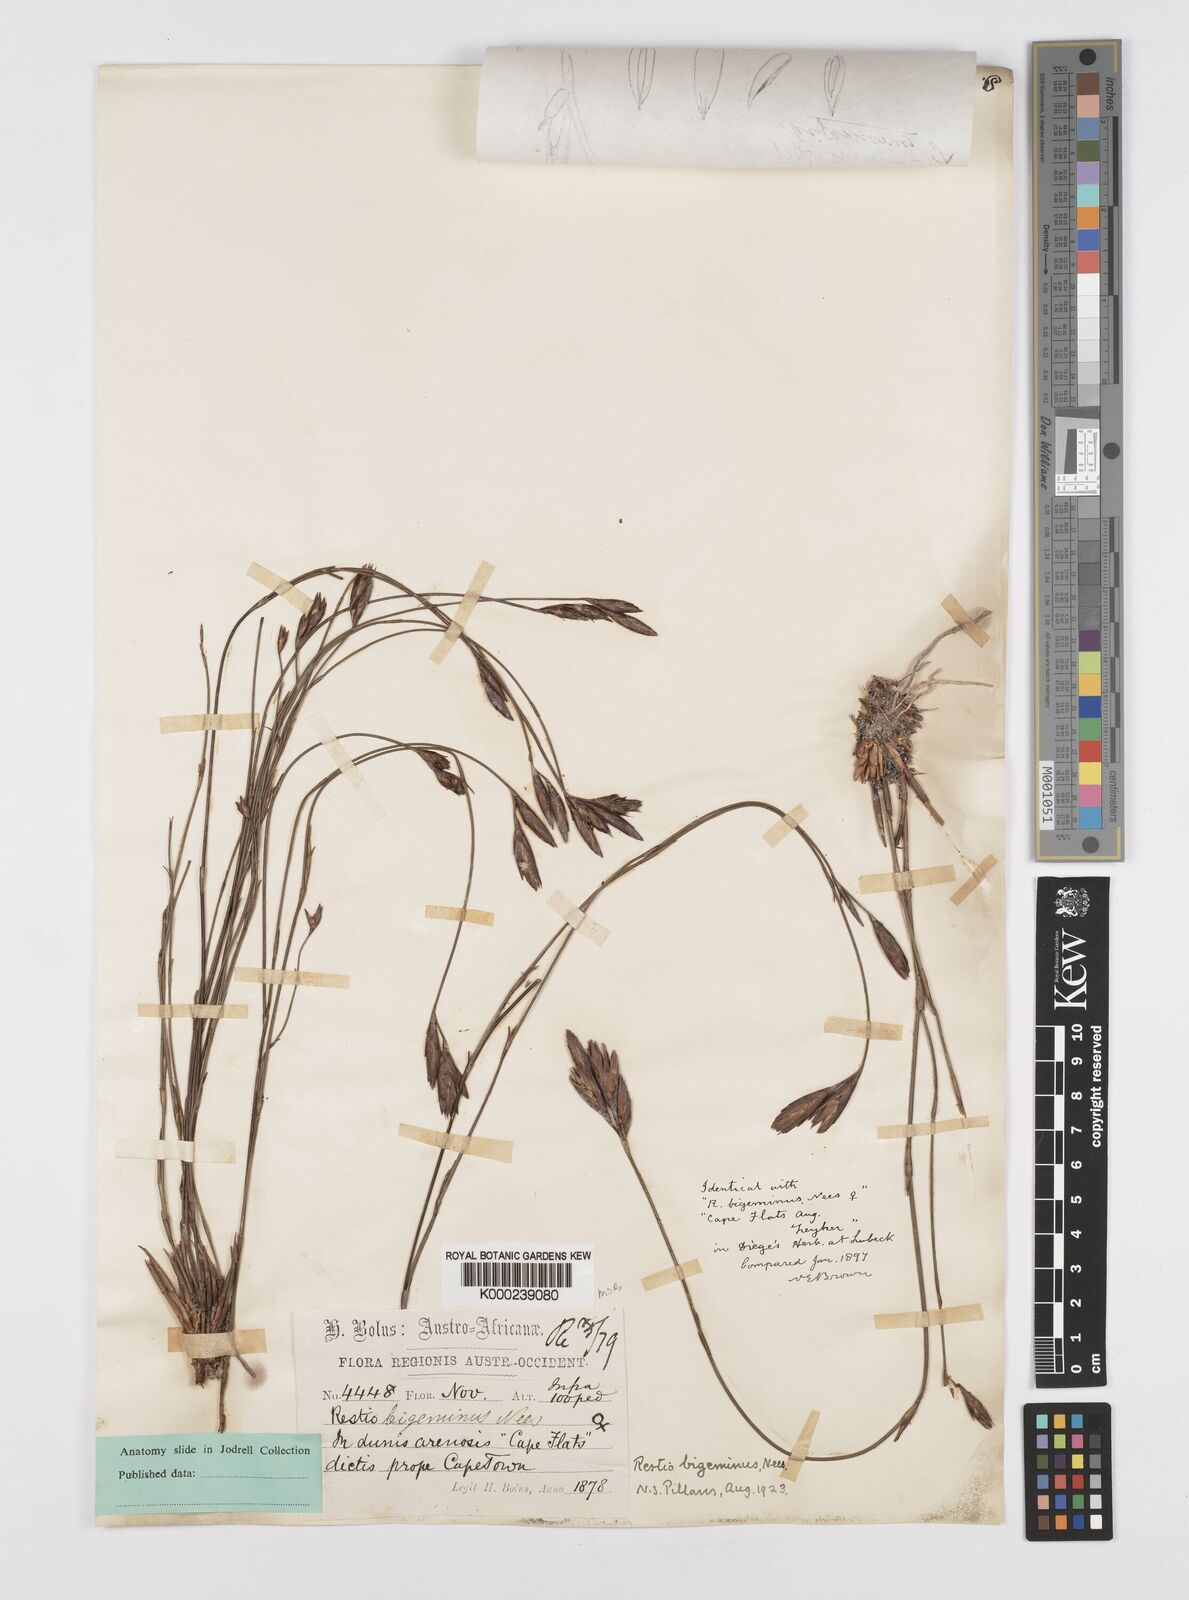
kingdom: Plantae
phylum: Tracheophyta
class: Liliopsida
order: Poales
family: Restionaceae
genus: Restio
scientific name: Restio micans
